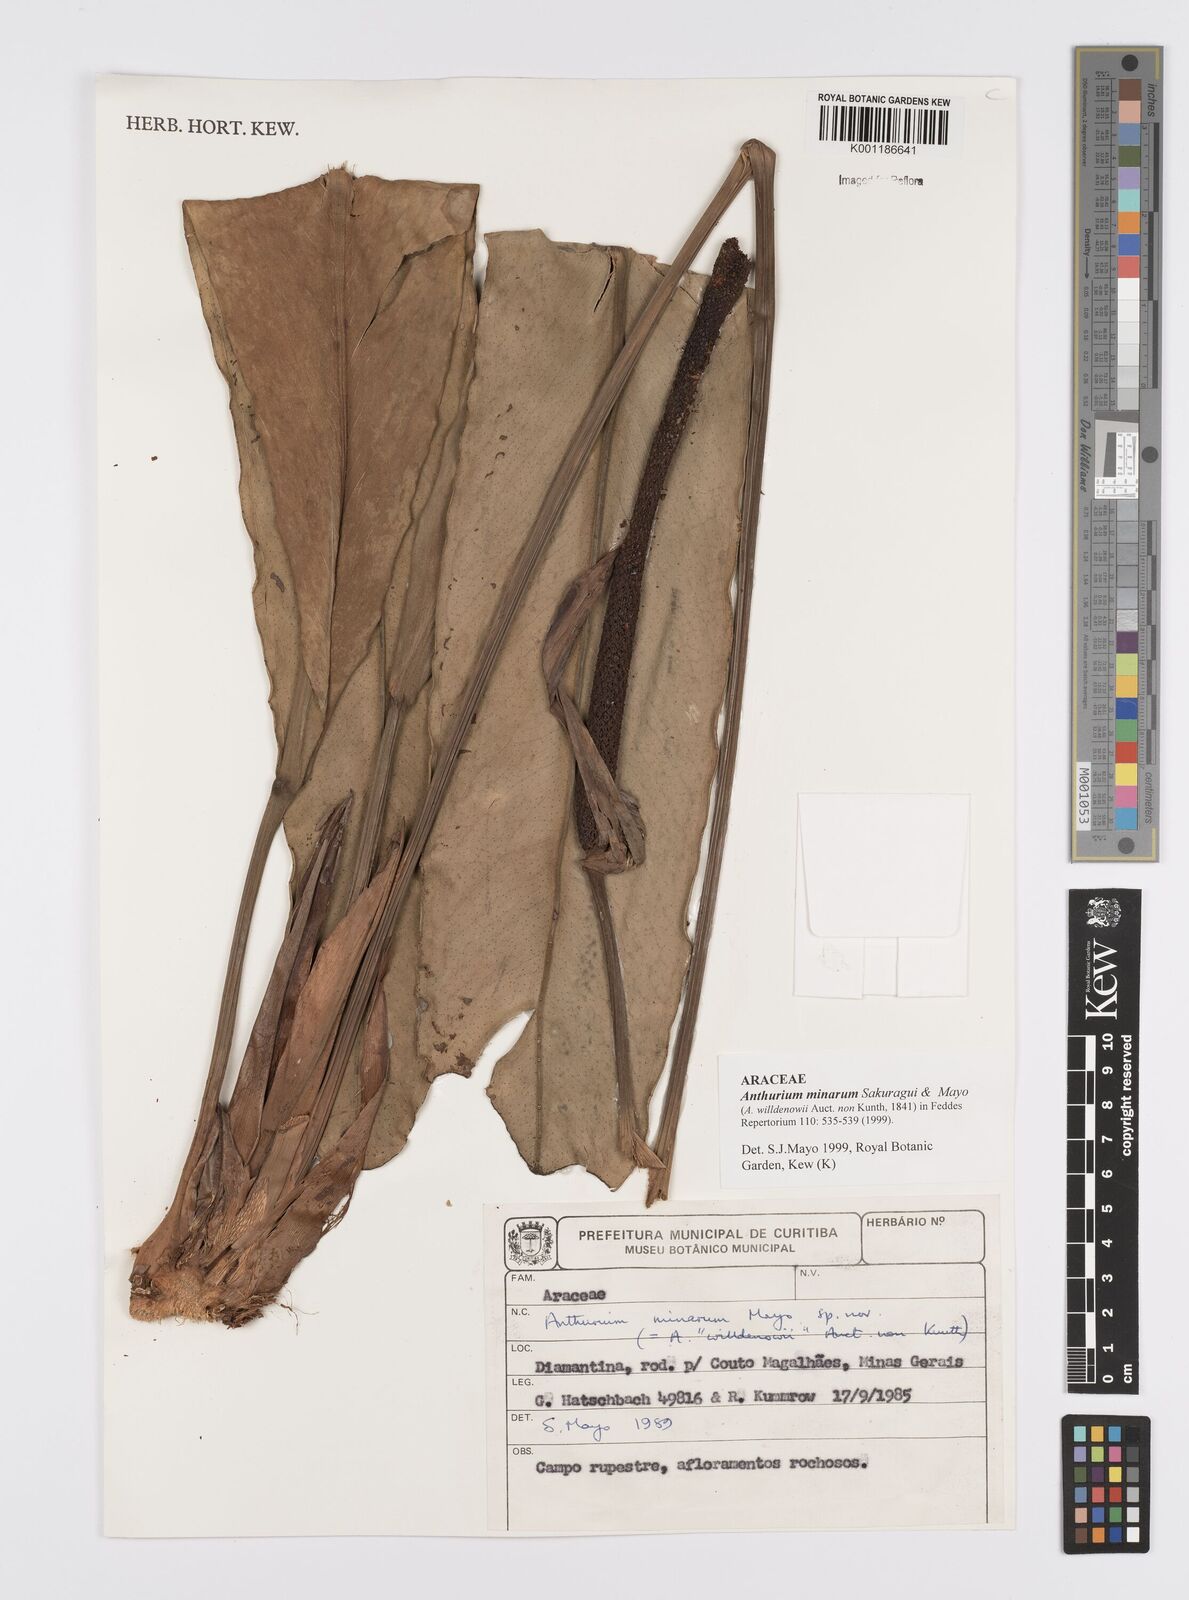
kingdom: Plantae
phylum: Tracheophyta
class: Liliopsida
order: Alismatales
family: Araceae
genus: Anthurium
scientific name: Anthurium minarum
